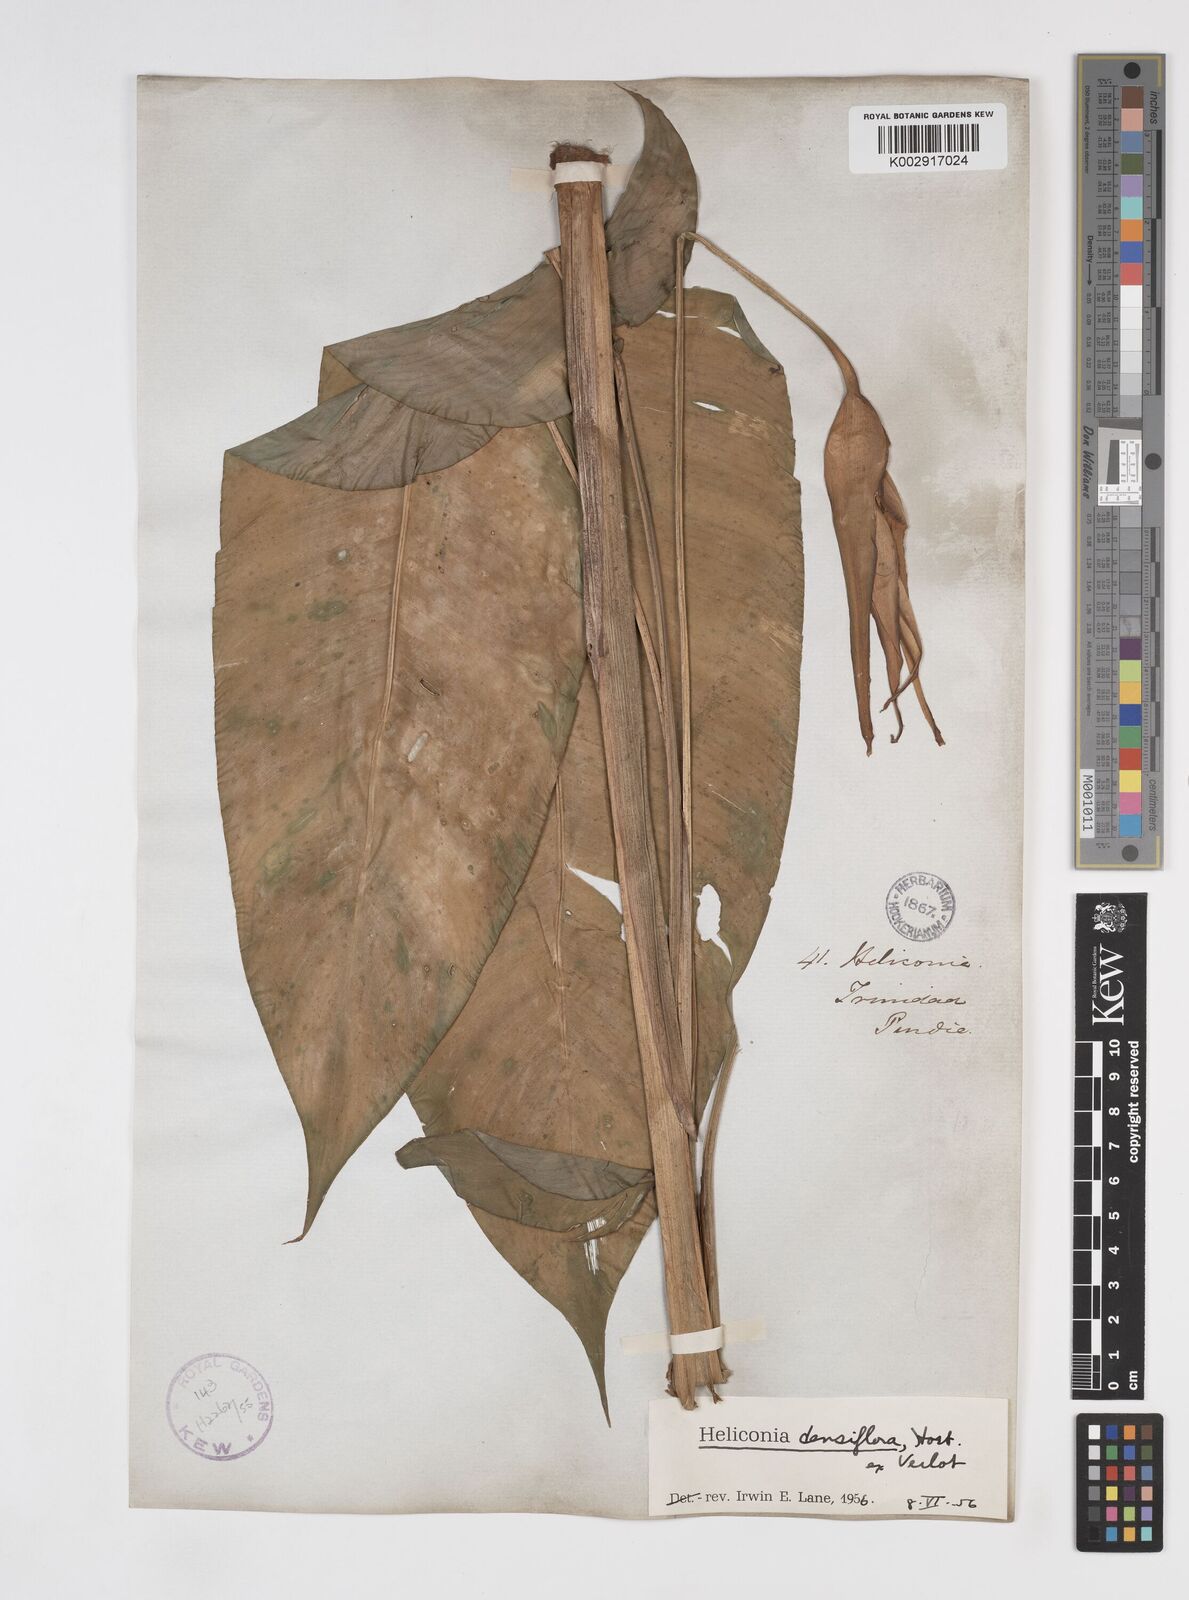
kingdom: Plantae
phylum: Tracheophyta
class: Liliopsida
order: Zingiberales
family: Heliconiaceae
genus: Heliconia
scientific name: Heliconia densiflora
